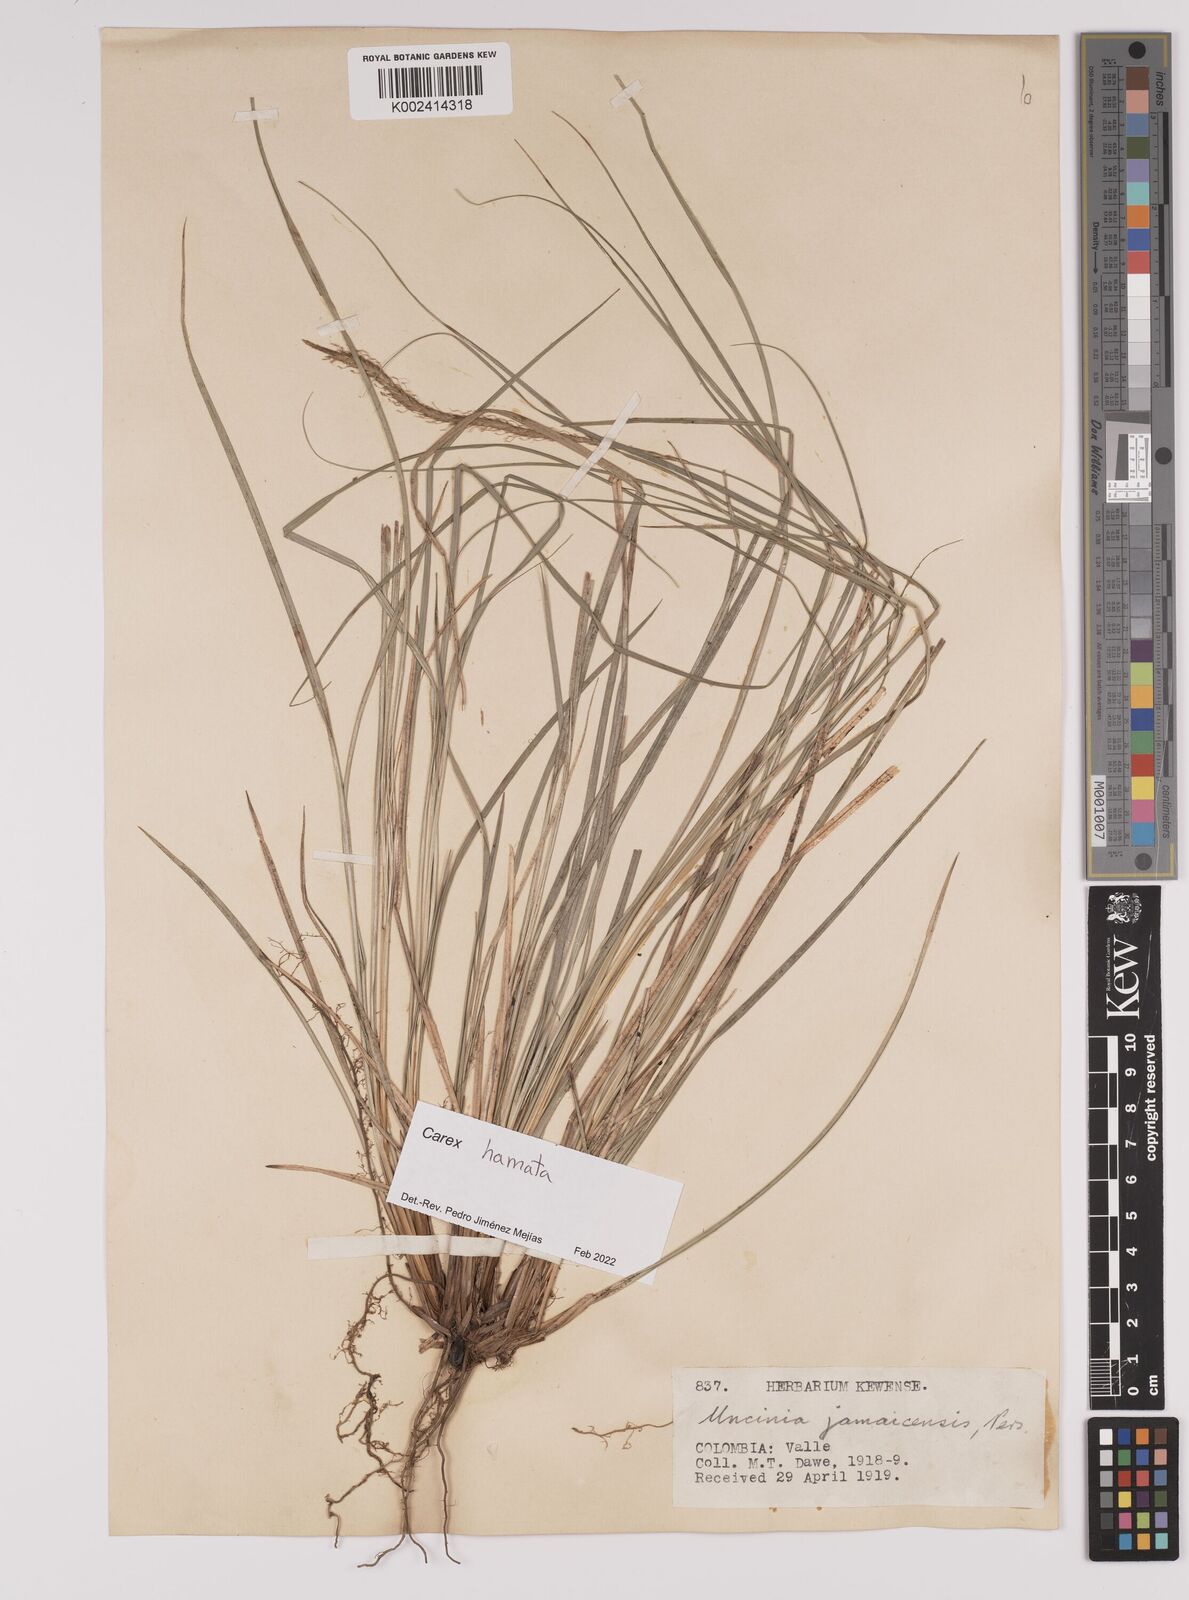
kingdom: Plantae
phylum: Tracheophyta
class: Liliopsida
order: Poales
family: Cyperaceae
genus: Carex
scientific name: Carex hamata
